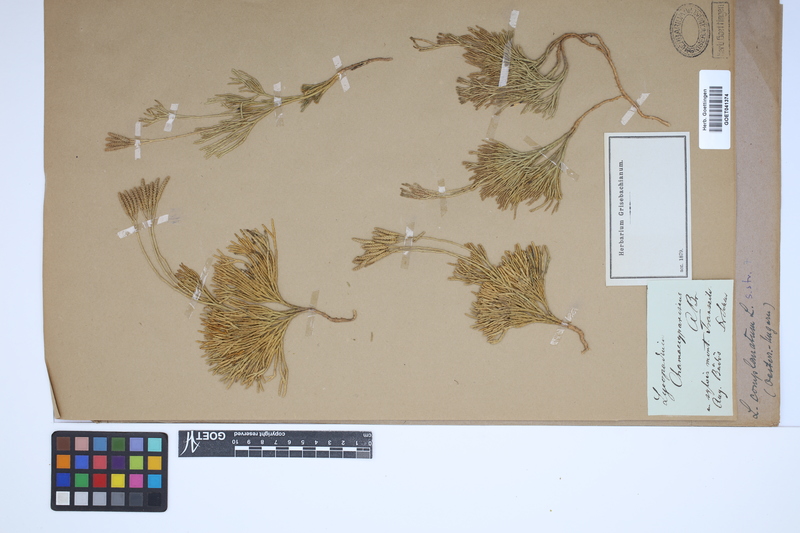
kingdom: Plantae
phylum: Tracheophyta
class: Lycopodiopsida
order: Lycopodiales
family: Lycopodiaceae
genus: Diphasiastrum
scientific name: Diphasiastrum complanatum
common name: Northern running-pine
